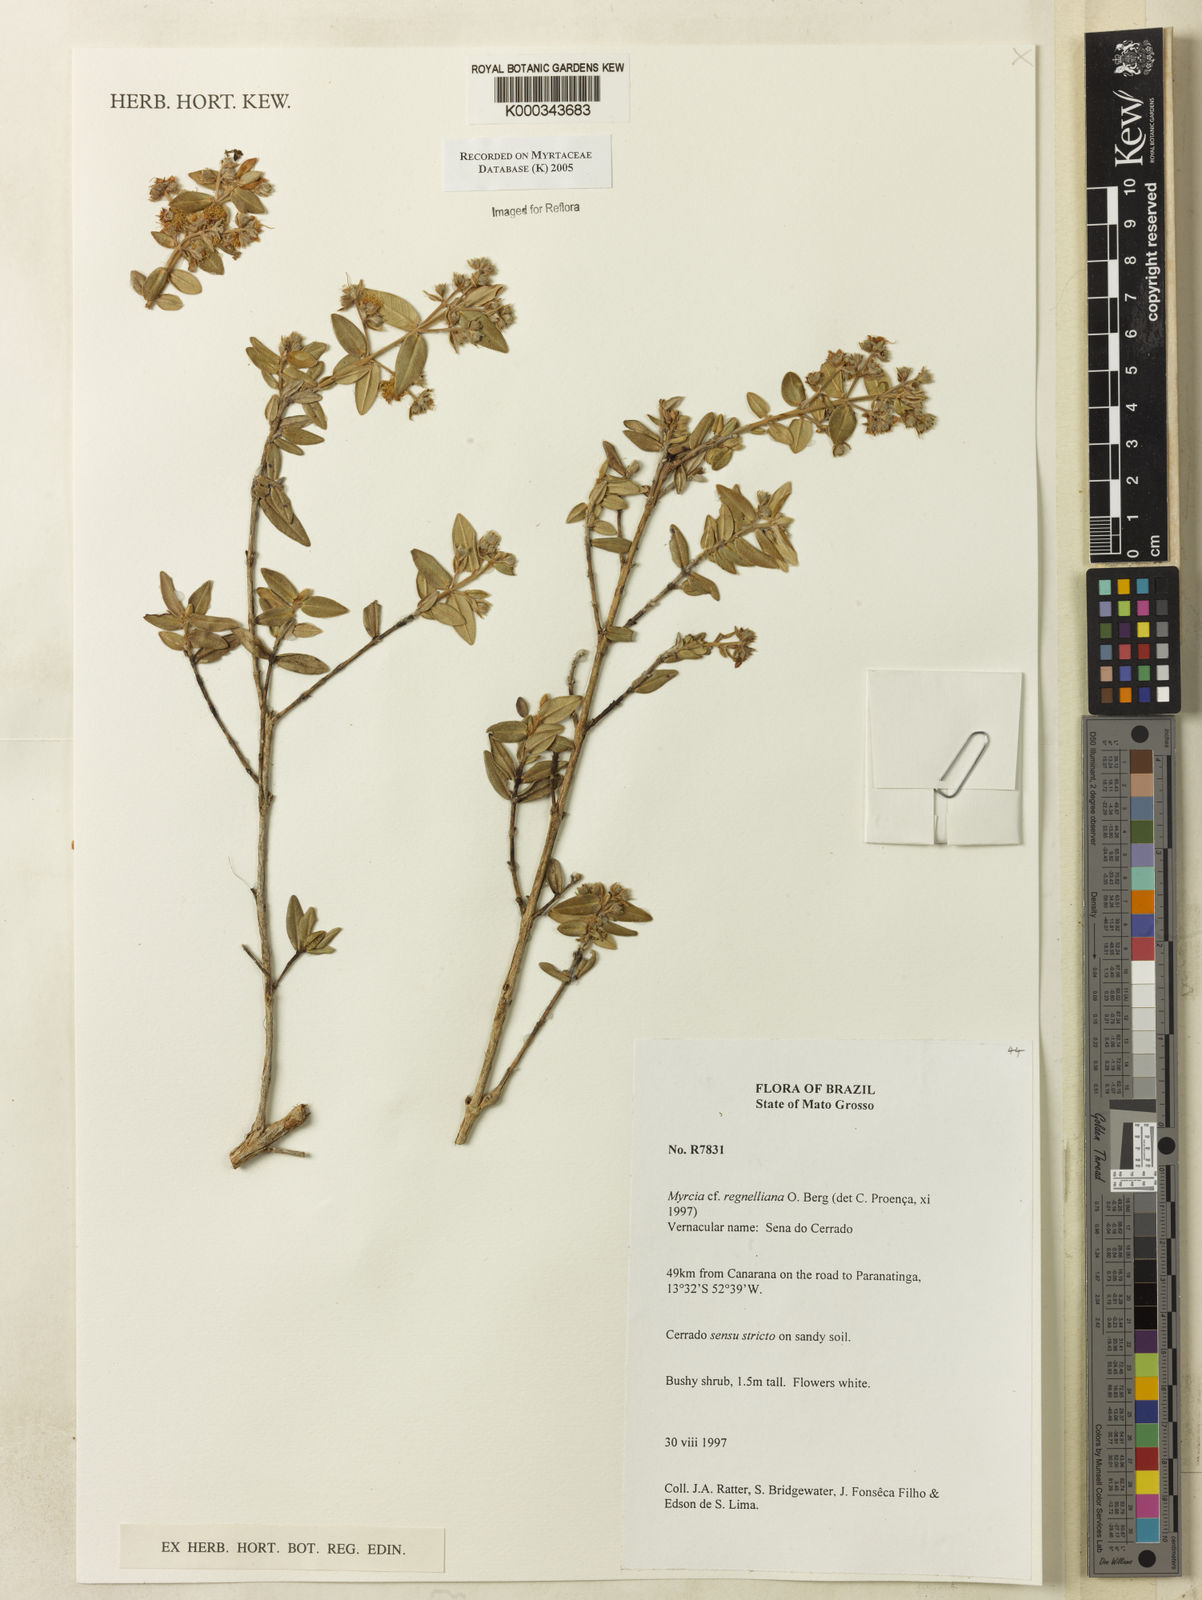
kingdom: Plantae
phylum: Tracheophyta
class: Magnoliopsida
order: Myrtales
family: Myrtaceae
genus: Myrcia
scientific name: Myrcia regnelliana
